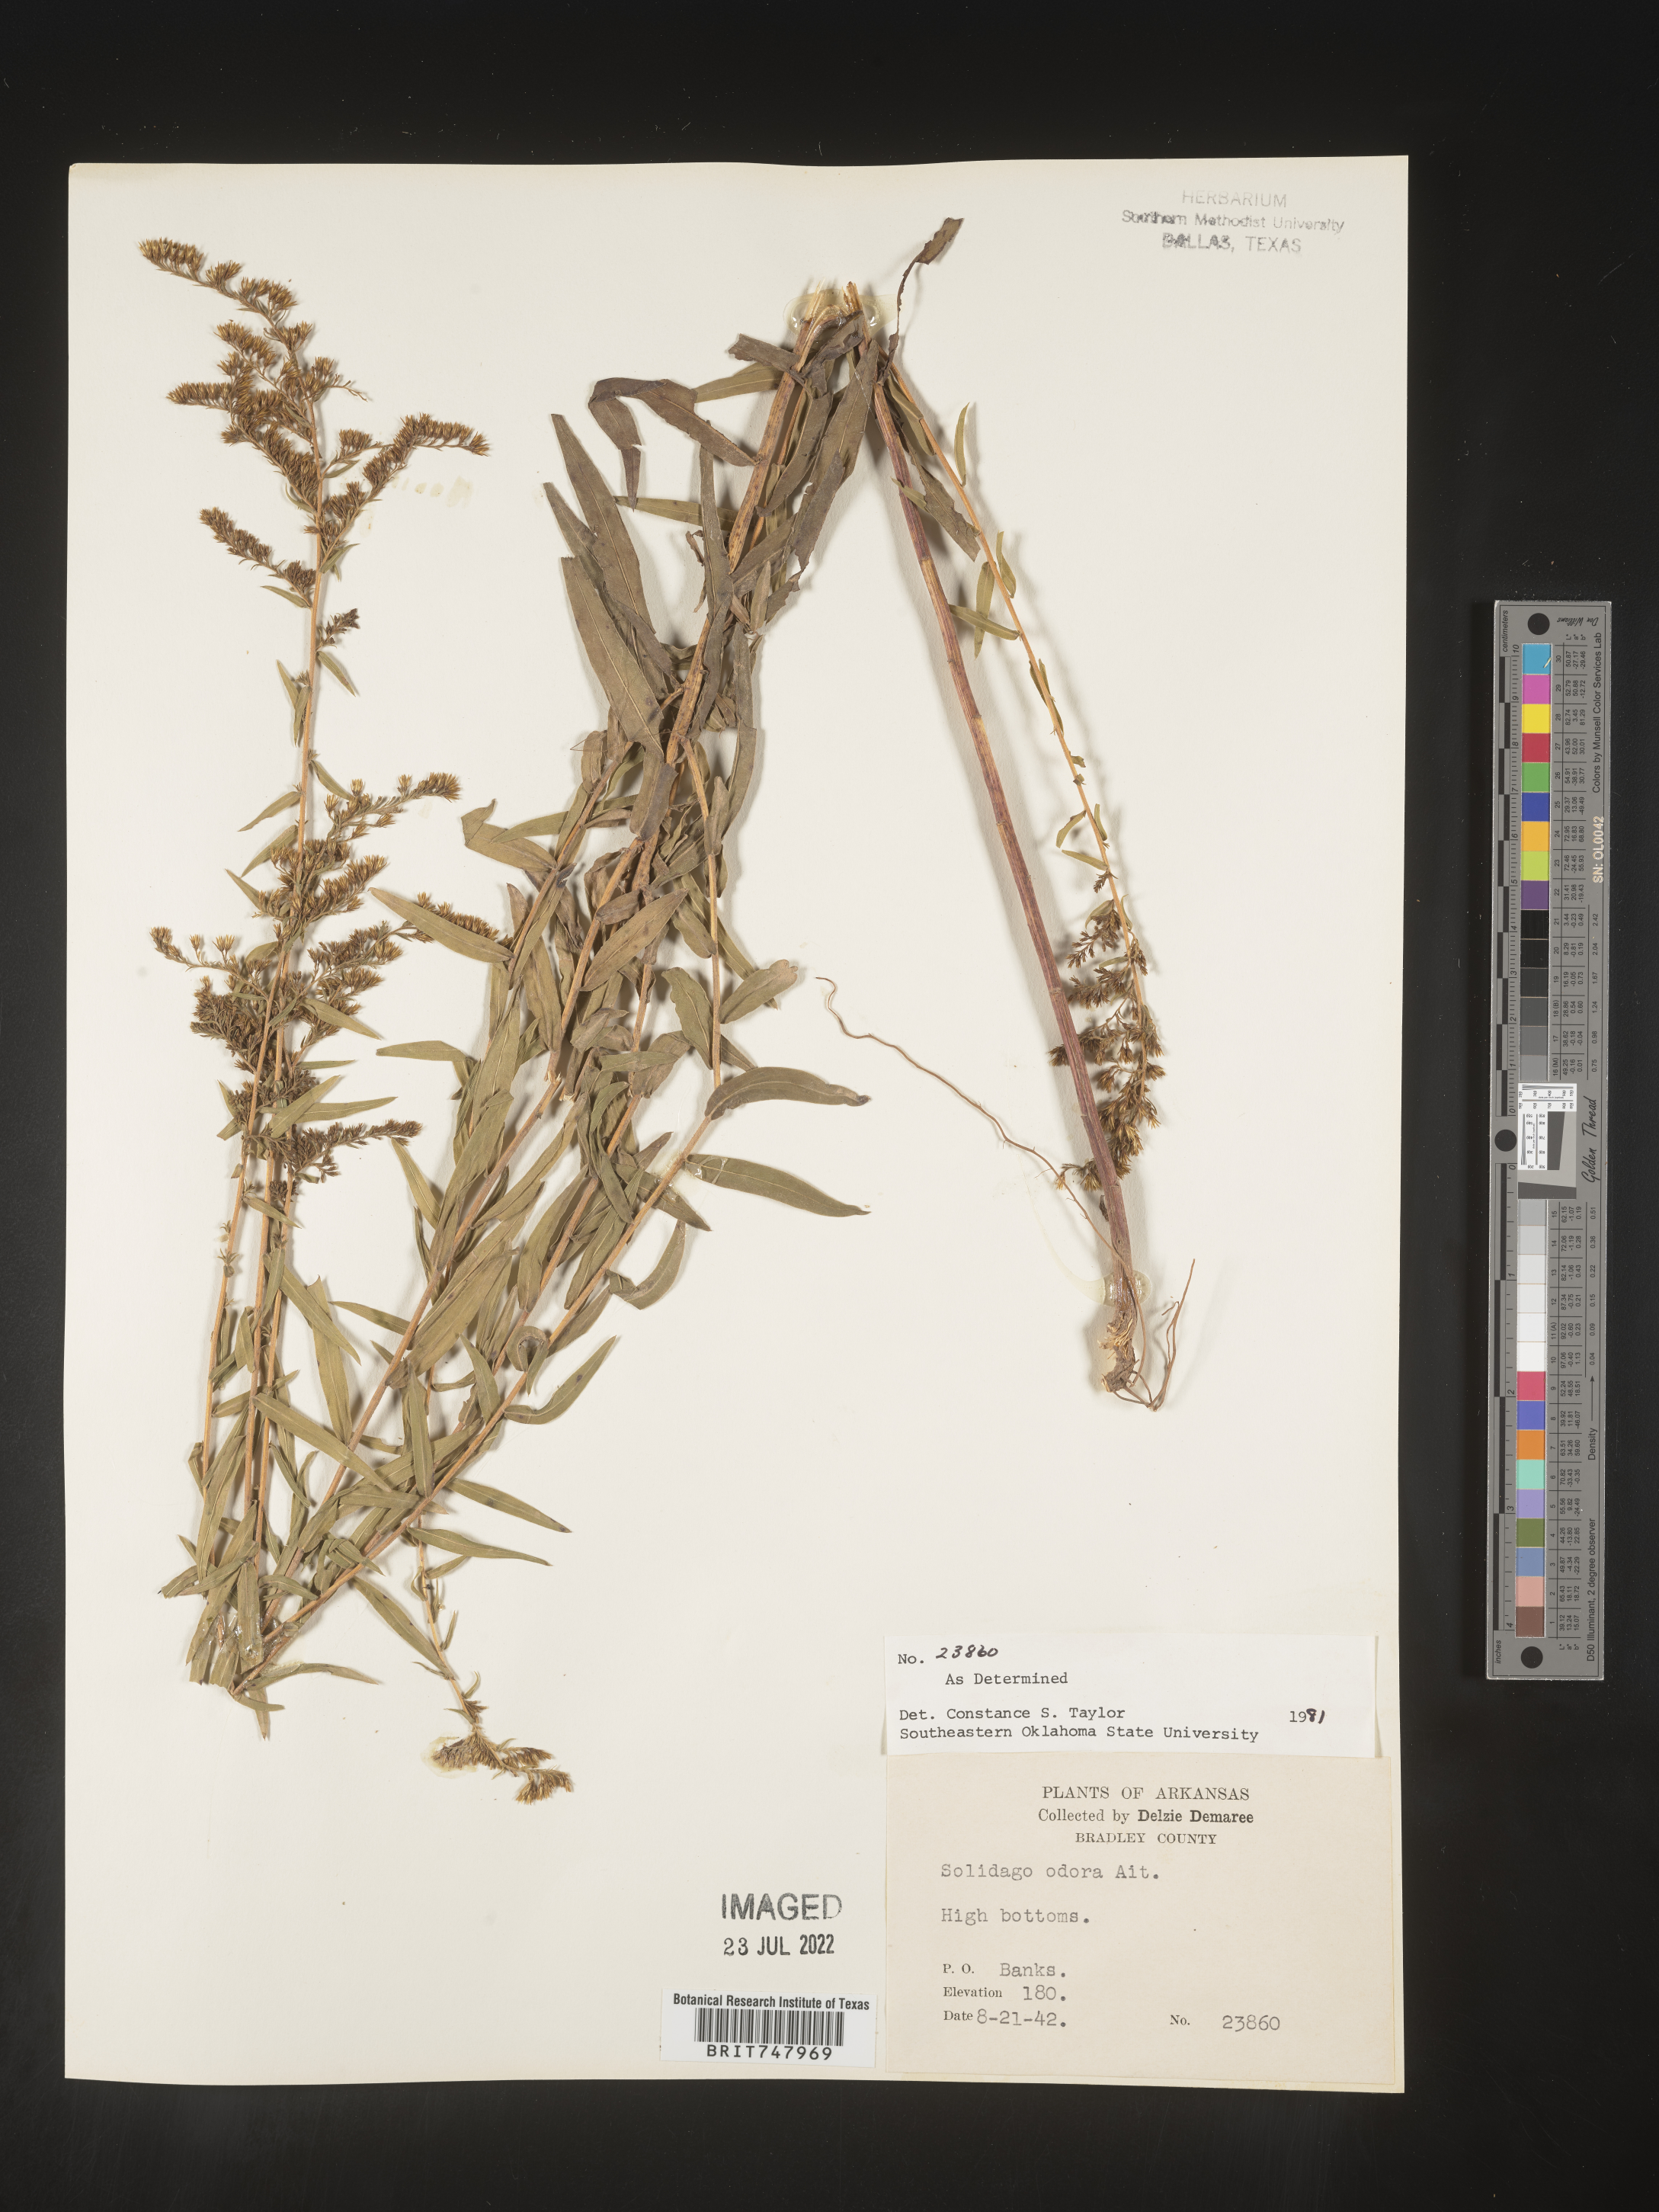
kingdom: Plantae
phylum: Tracheophyta
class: Magnoliopsida
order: Asterales
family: Asteraceae
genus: Solidago
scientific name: Solidago odora
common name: Anise-scented goldenrod
